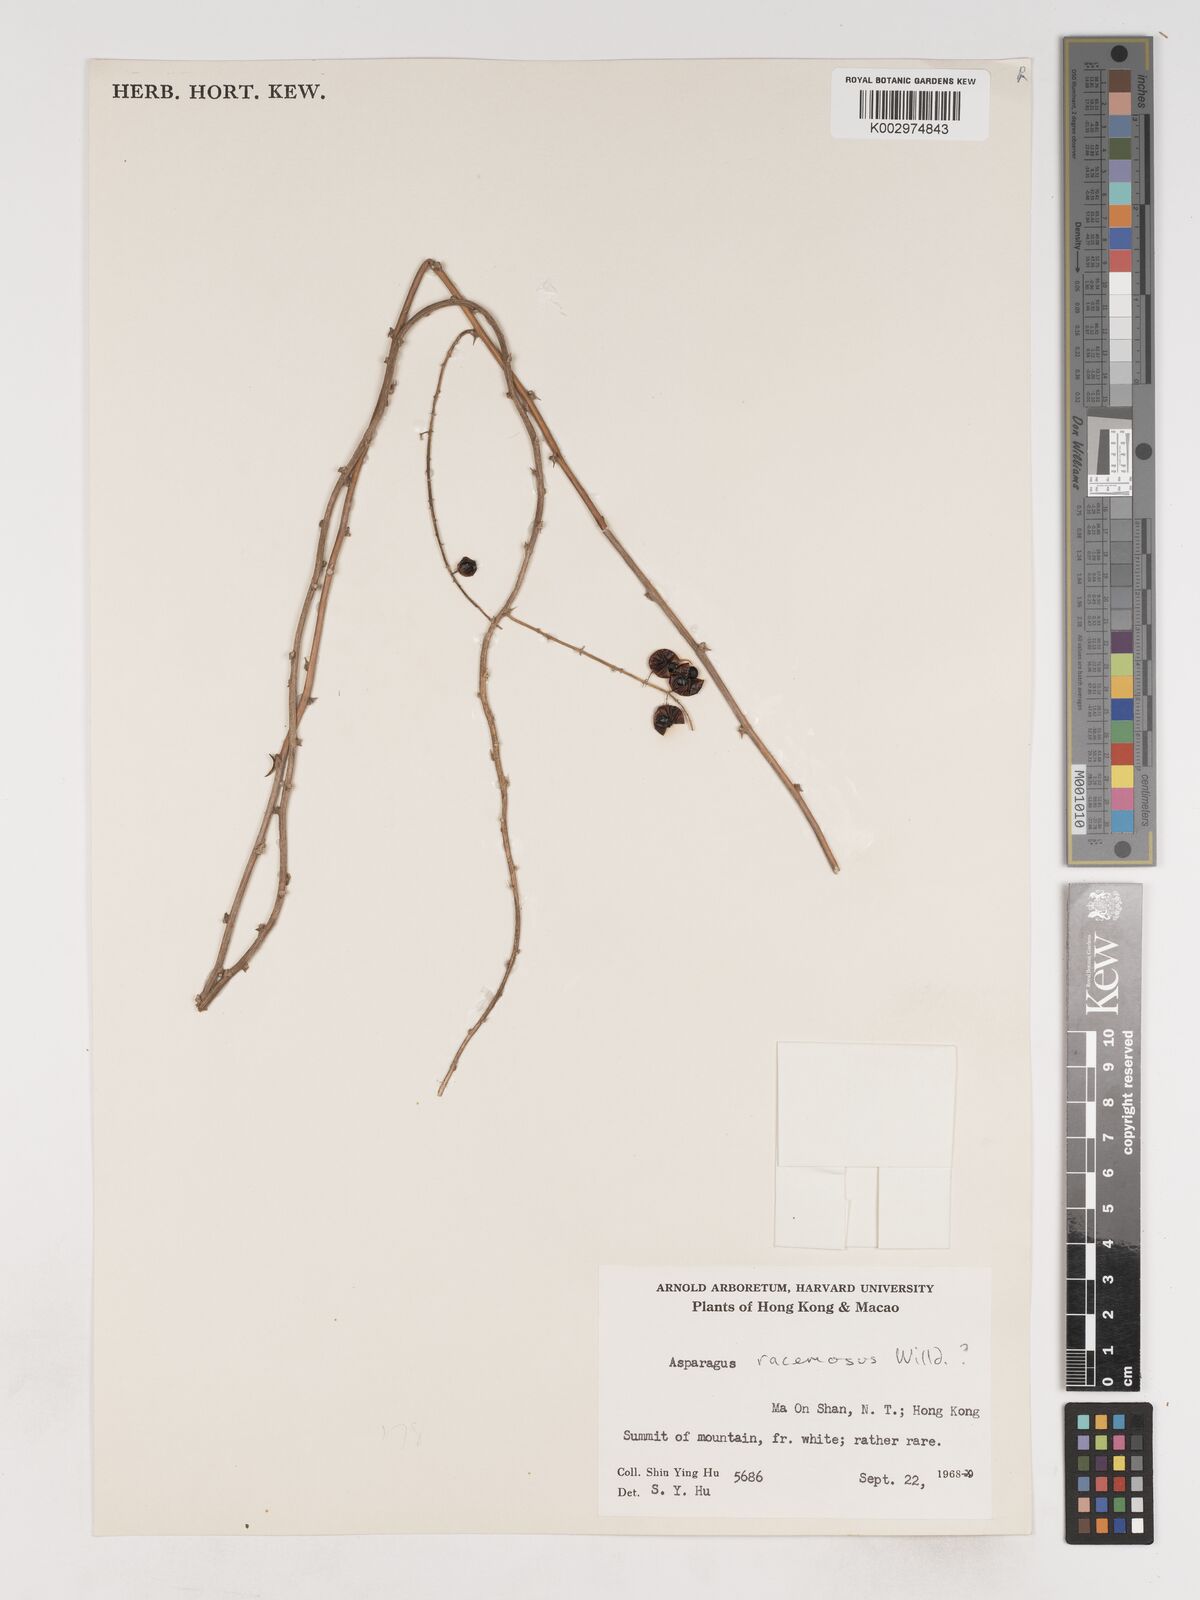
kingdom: Plantae
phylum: Tracheophyta
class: Liliopsida
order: Asparagales
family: Asparagaceae
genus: Asparagus
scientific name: Asparagus cochinchinensis
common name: Chinese asparagus
